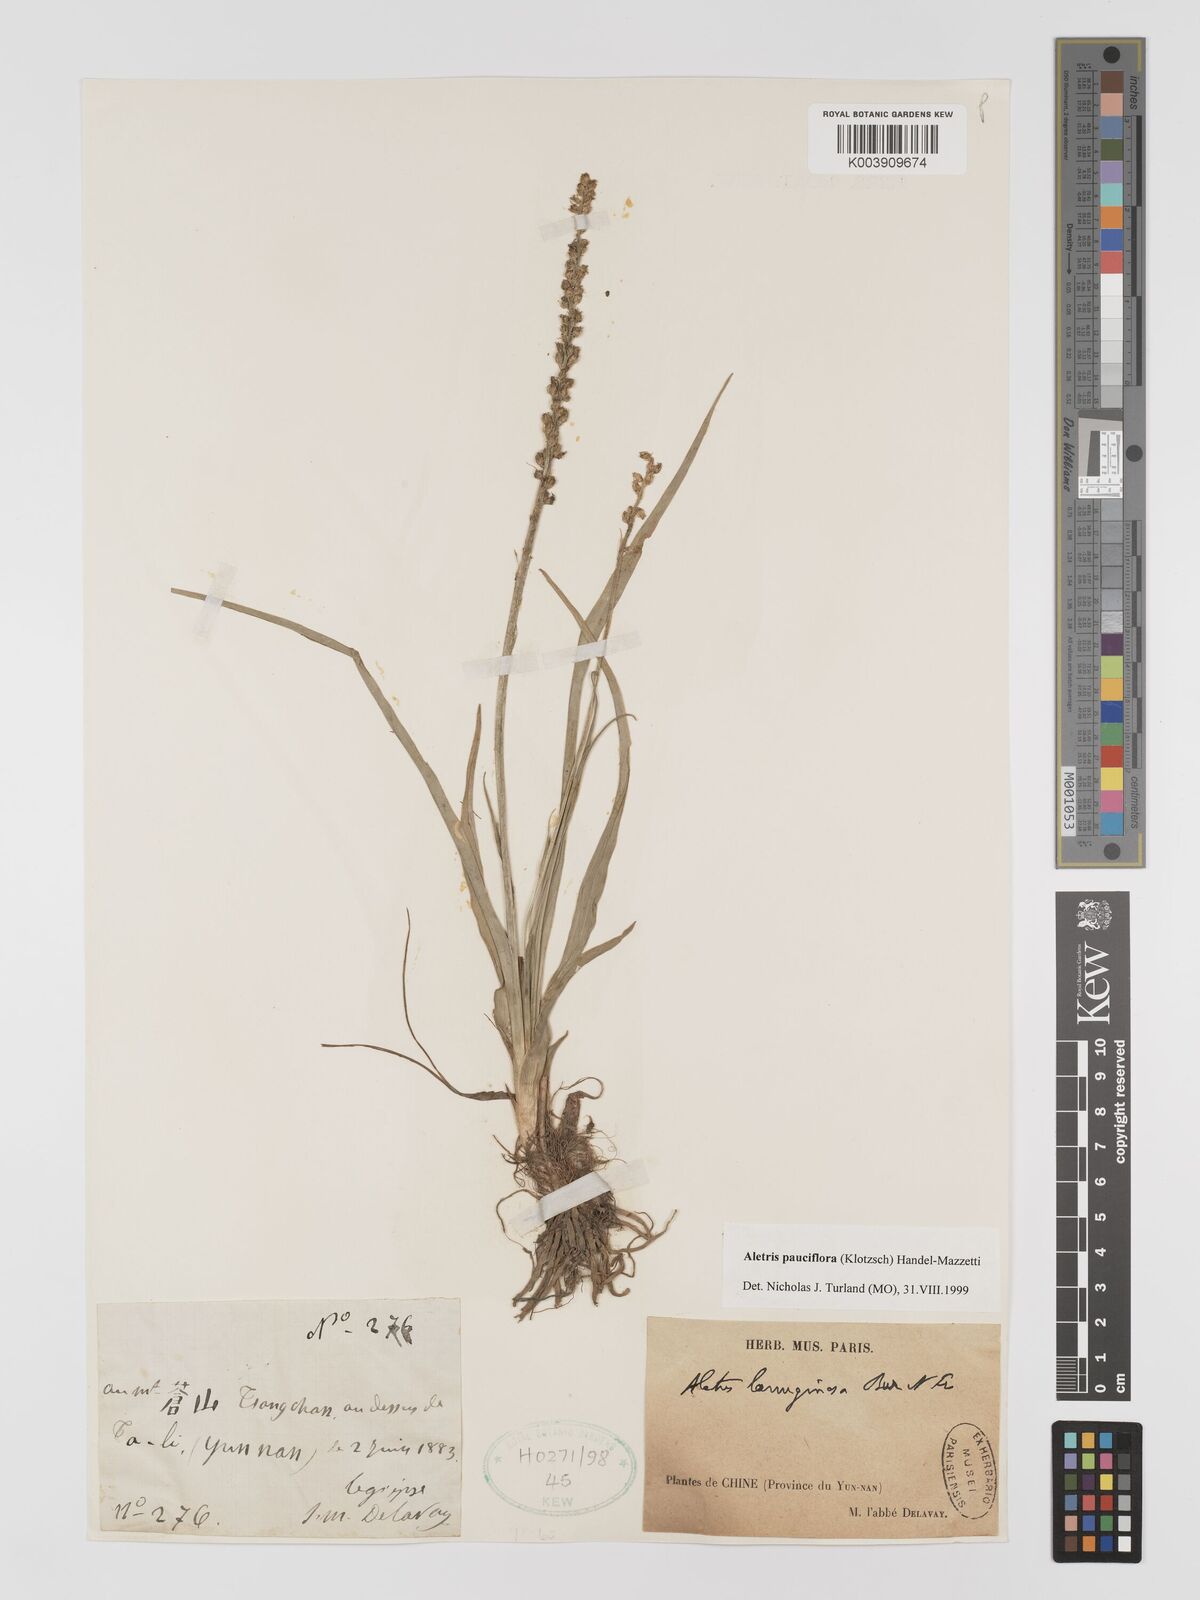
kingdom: Plantae
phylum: Tracheophyta
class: Liliopsida
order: Dioscoreales
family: Nartheciaceae
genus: Aletris
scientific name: Aletris pauciflora
